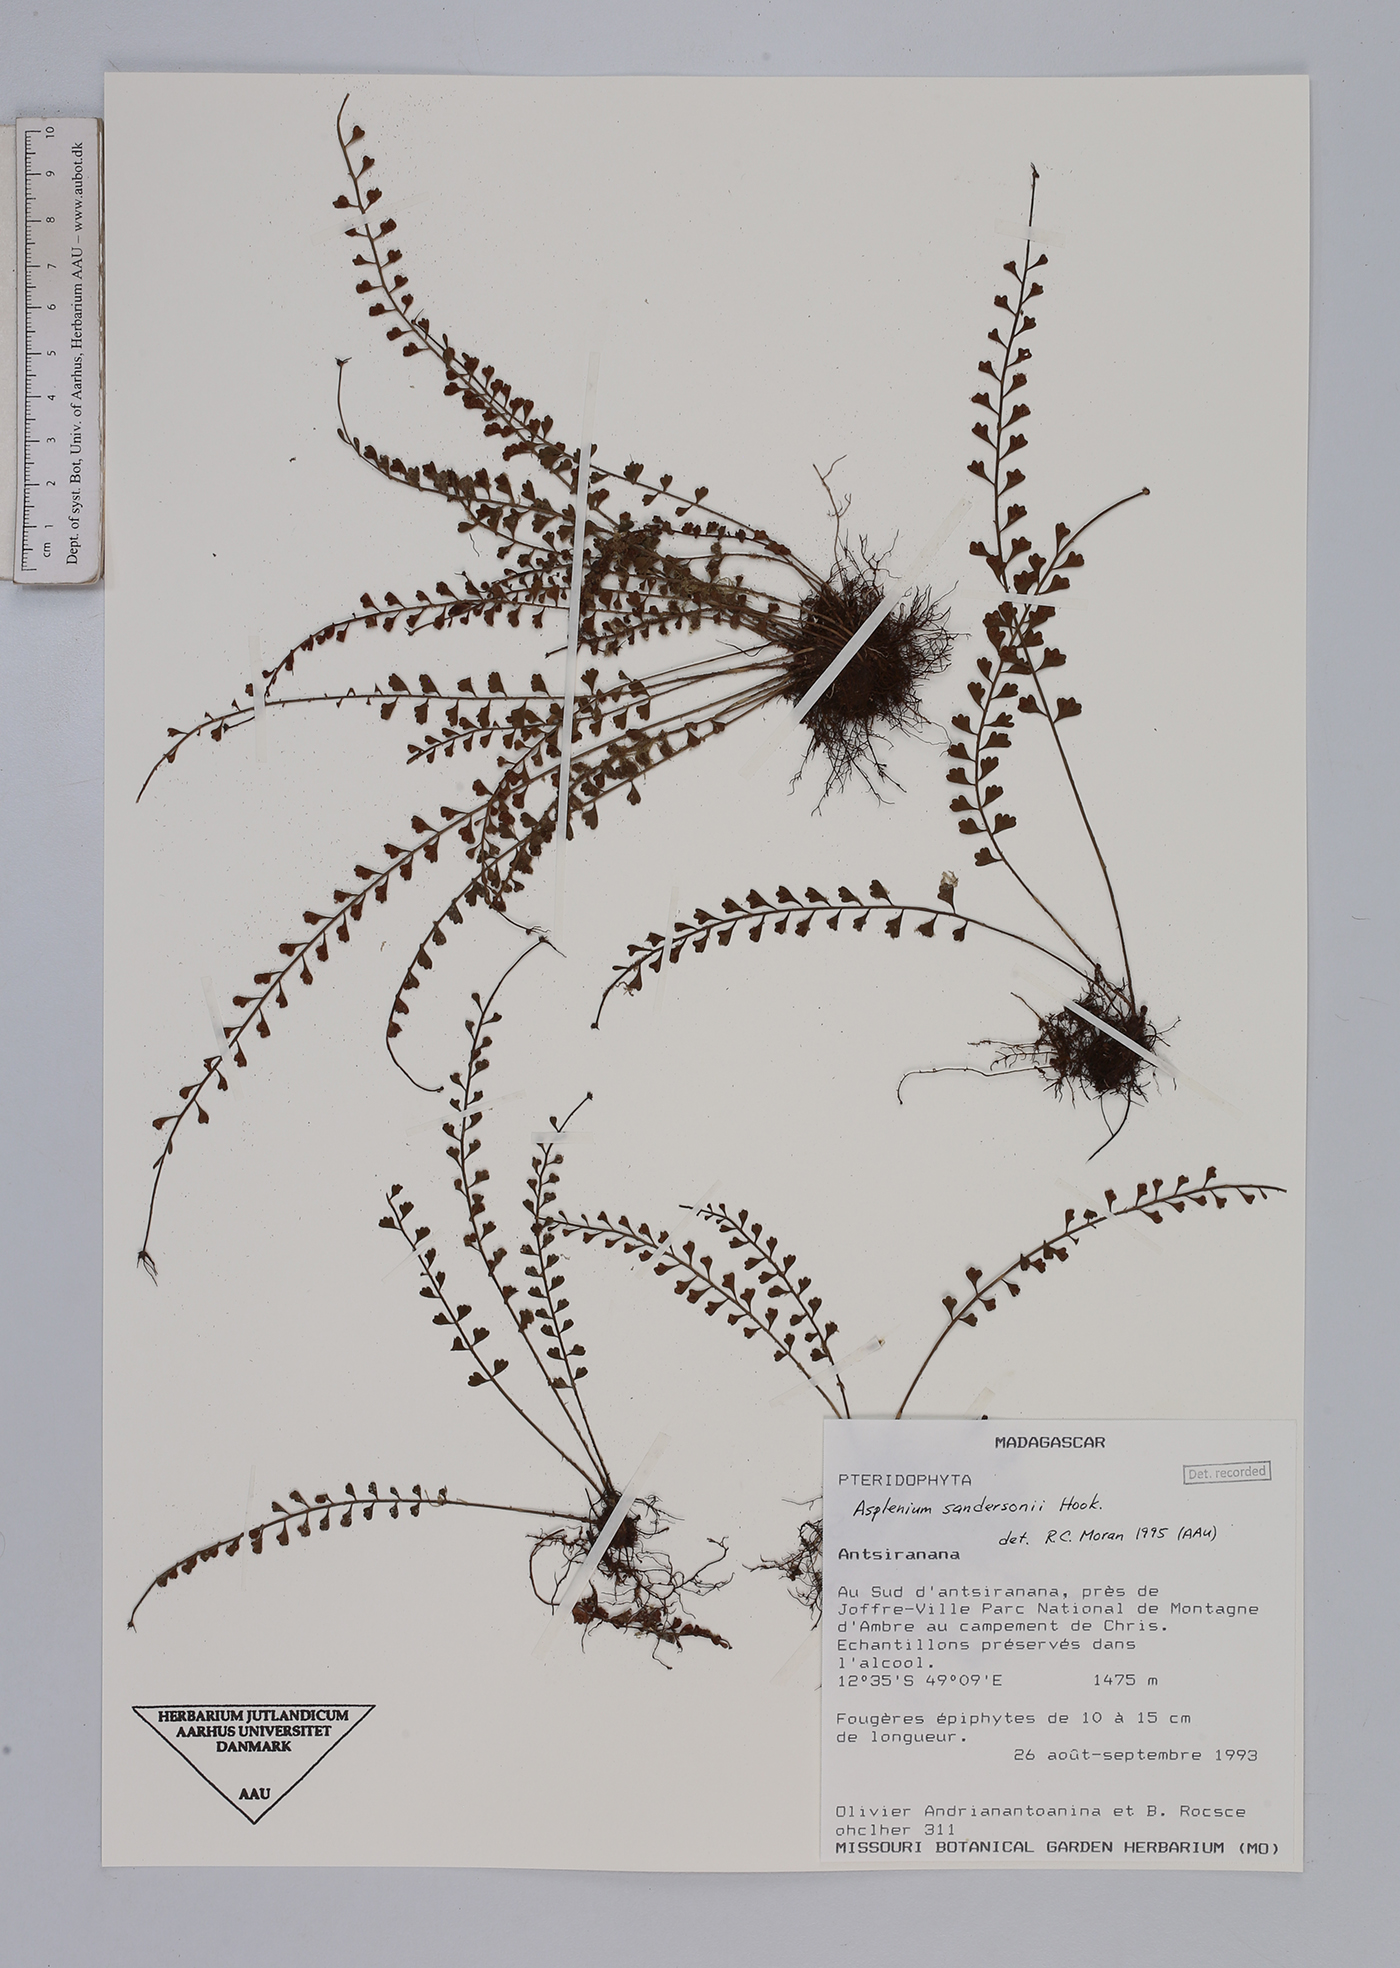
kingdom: Plantae
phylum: Tracheophyta
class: Polypodiopsida
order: Polypodiales
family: Aspleniaceae
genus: Asplenium
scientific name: Asplenium sandersonii
